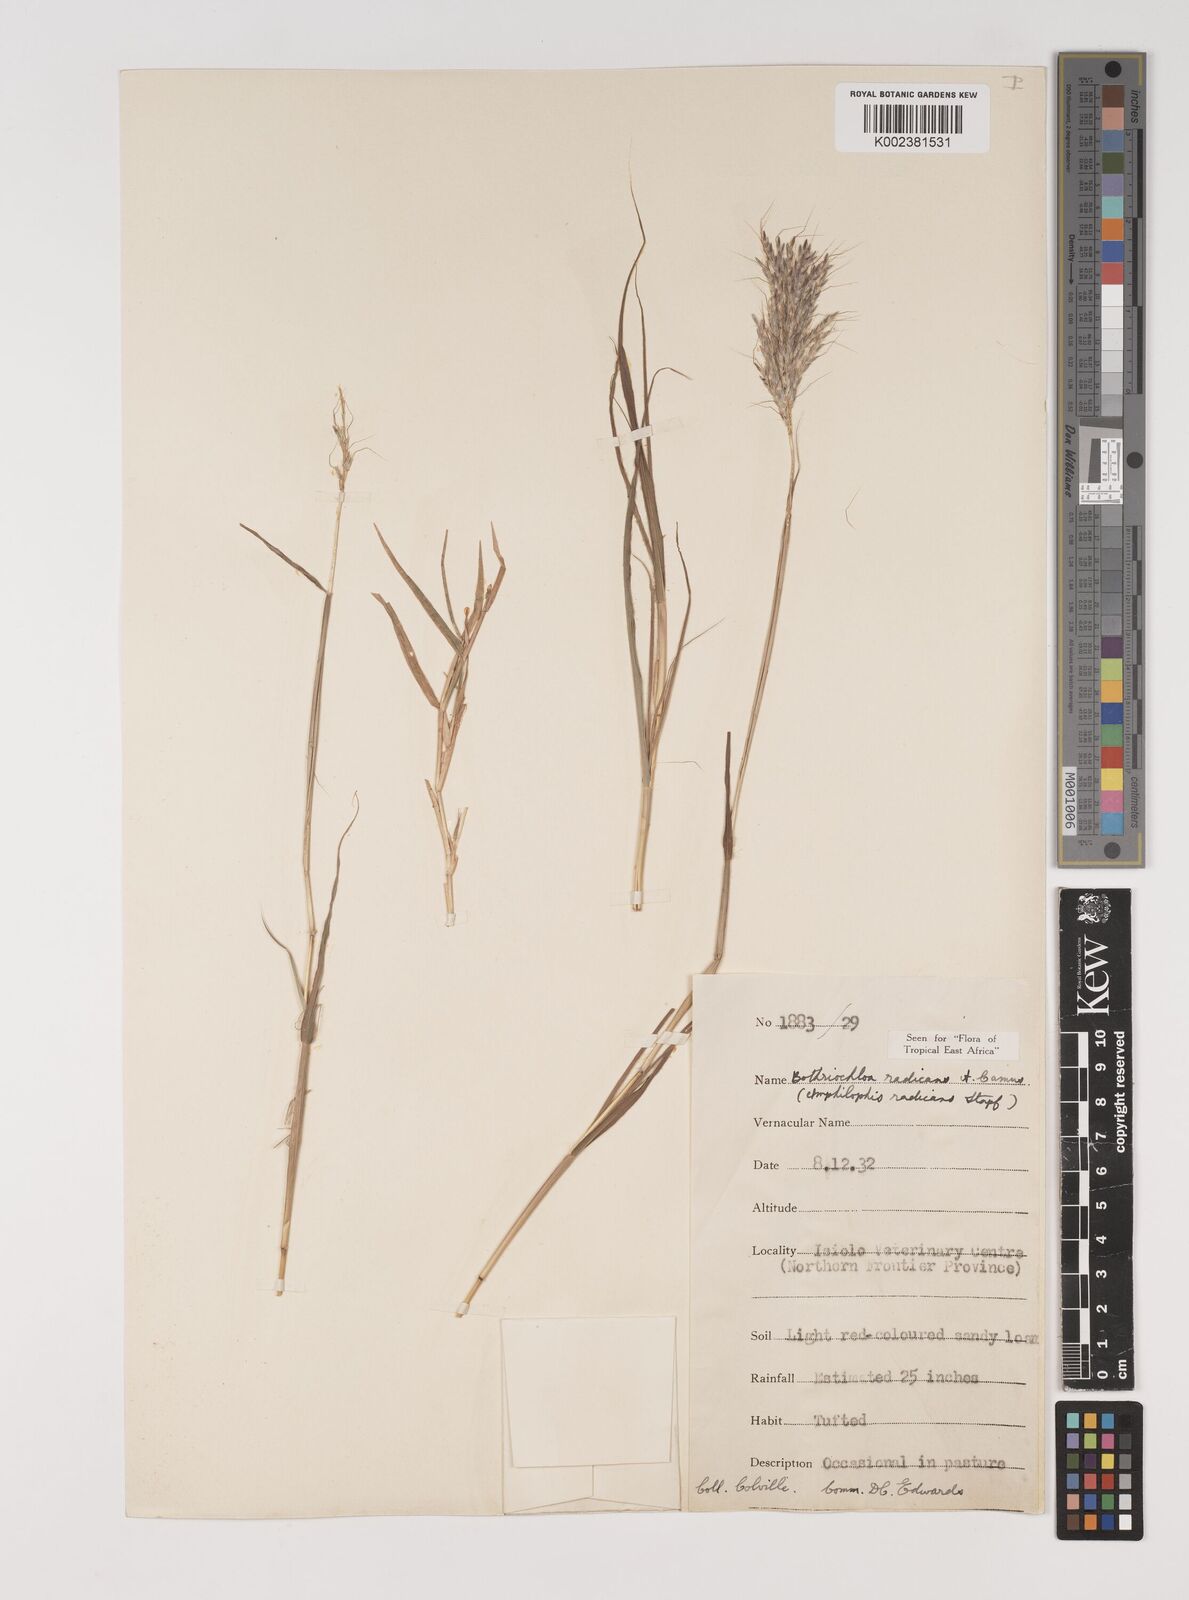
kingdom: Plantae
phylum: Tracheophyta
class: Liliopsida
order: Poales
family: Poaceae
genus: Bothriochloa
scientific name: Bothriochloa radicans
